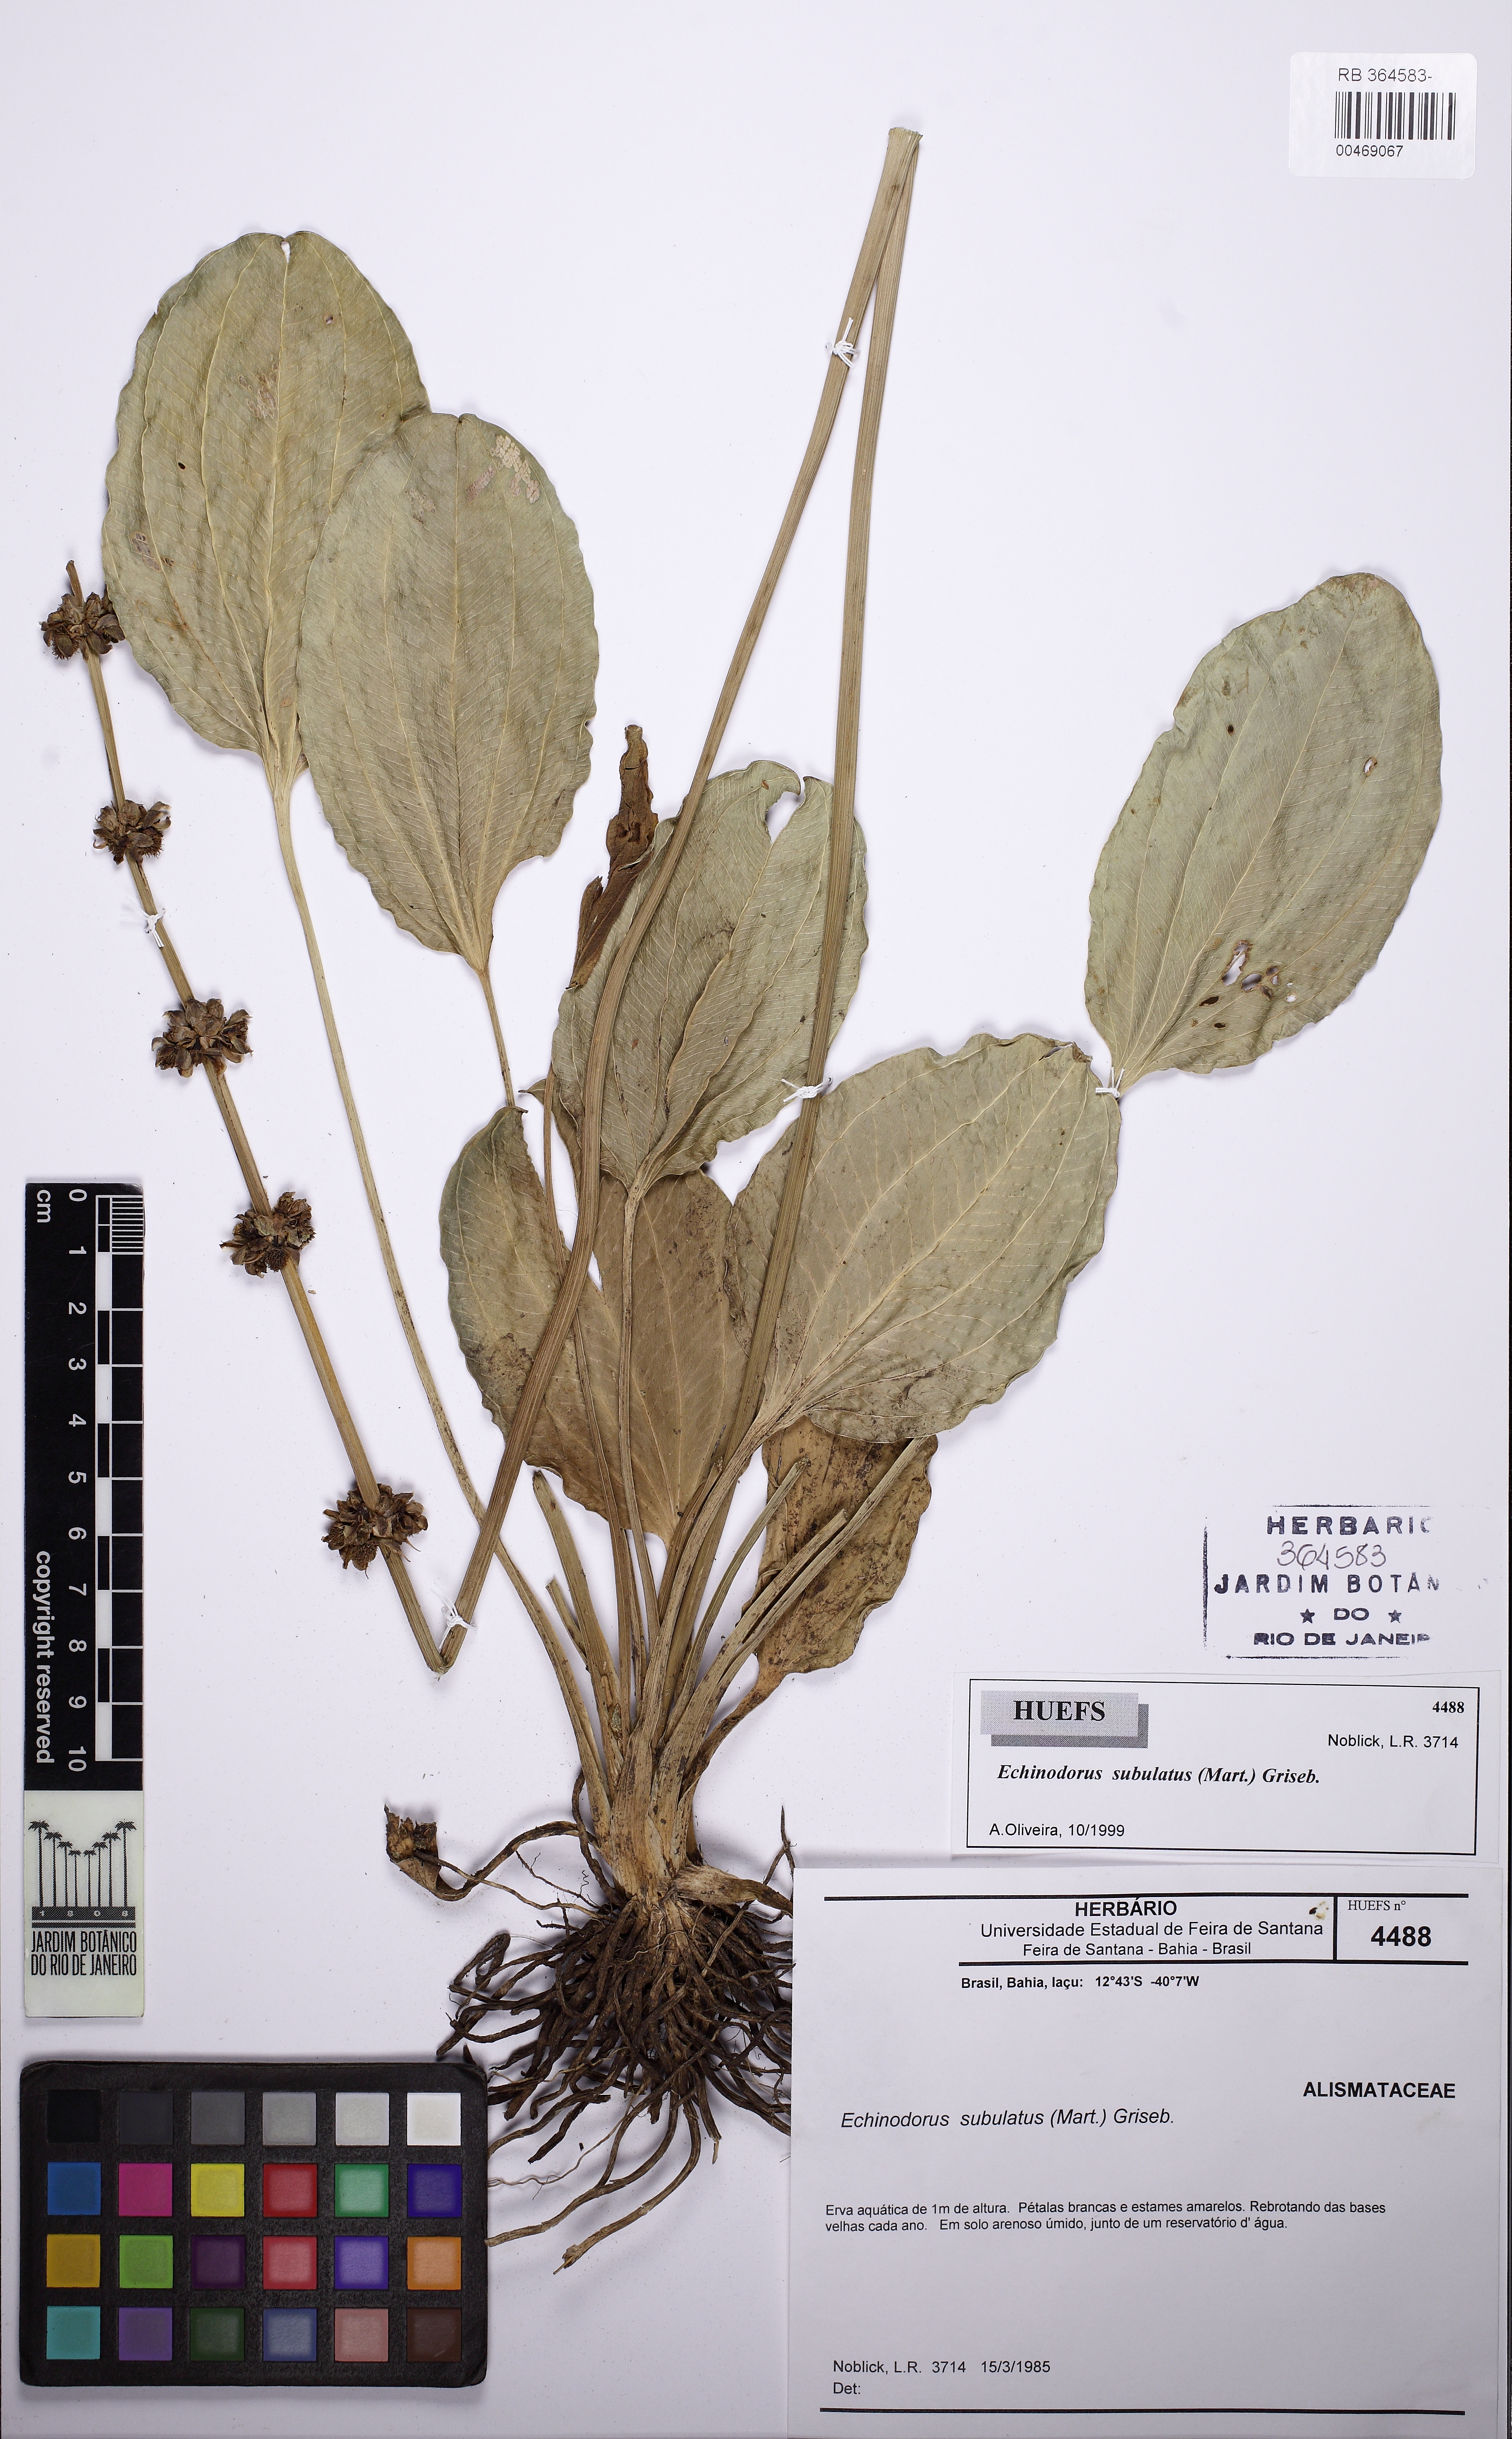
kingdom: Plantae
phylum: Tracheophyta
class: Liliopsida
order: Alismatales
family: Alismataceae
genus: Aquarius
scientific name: Aquarius subulatus
